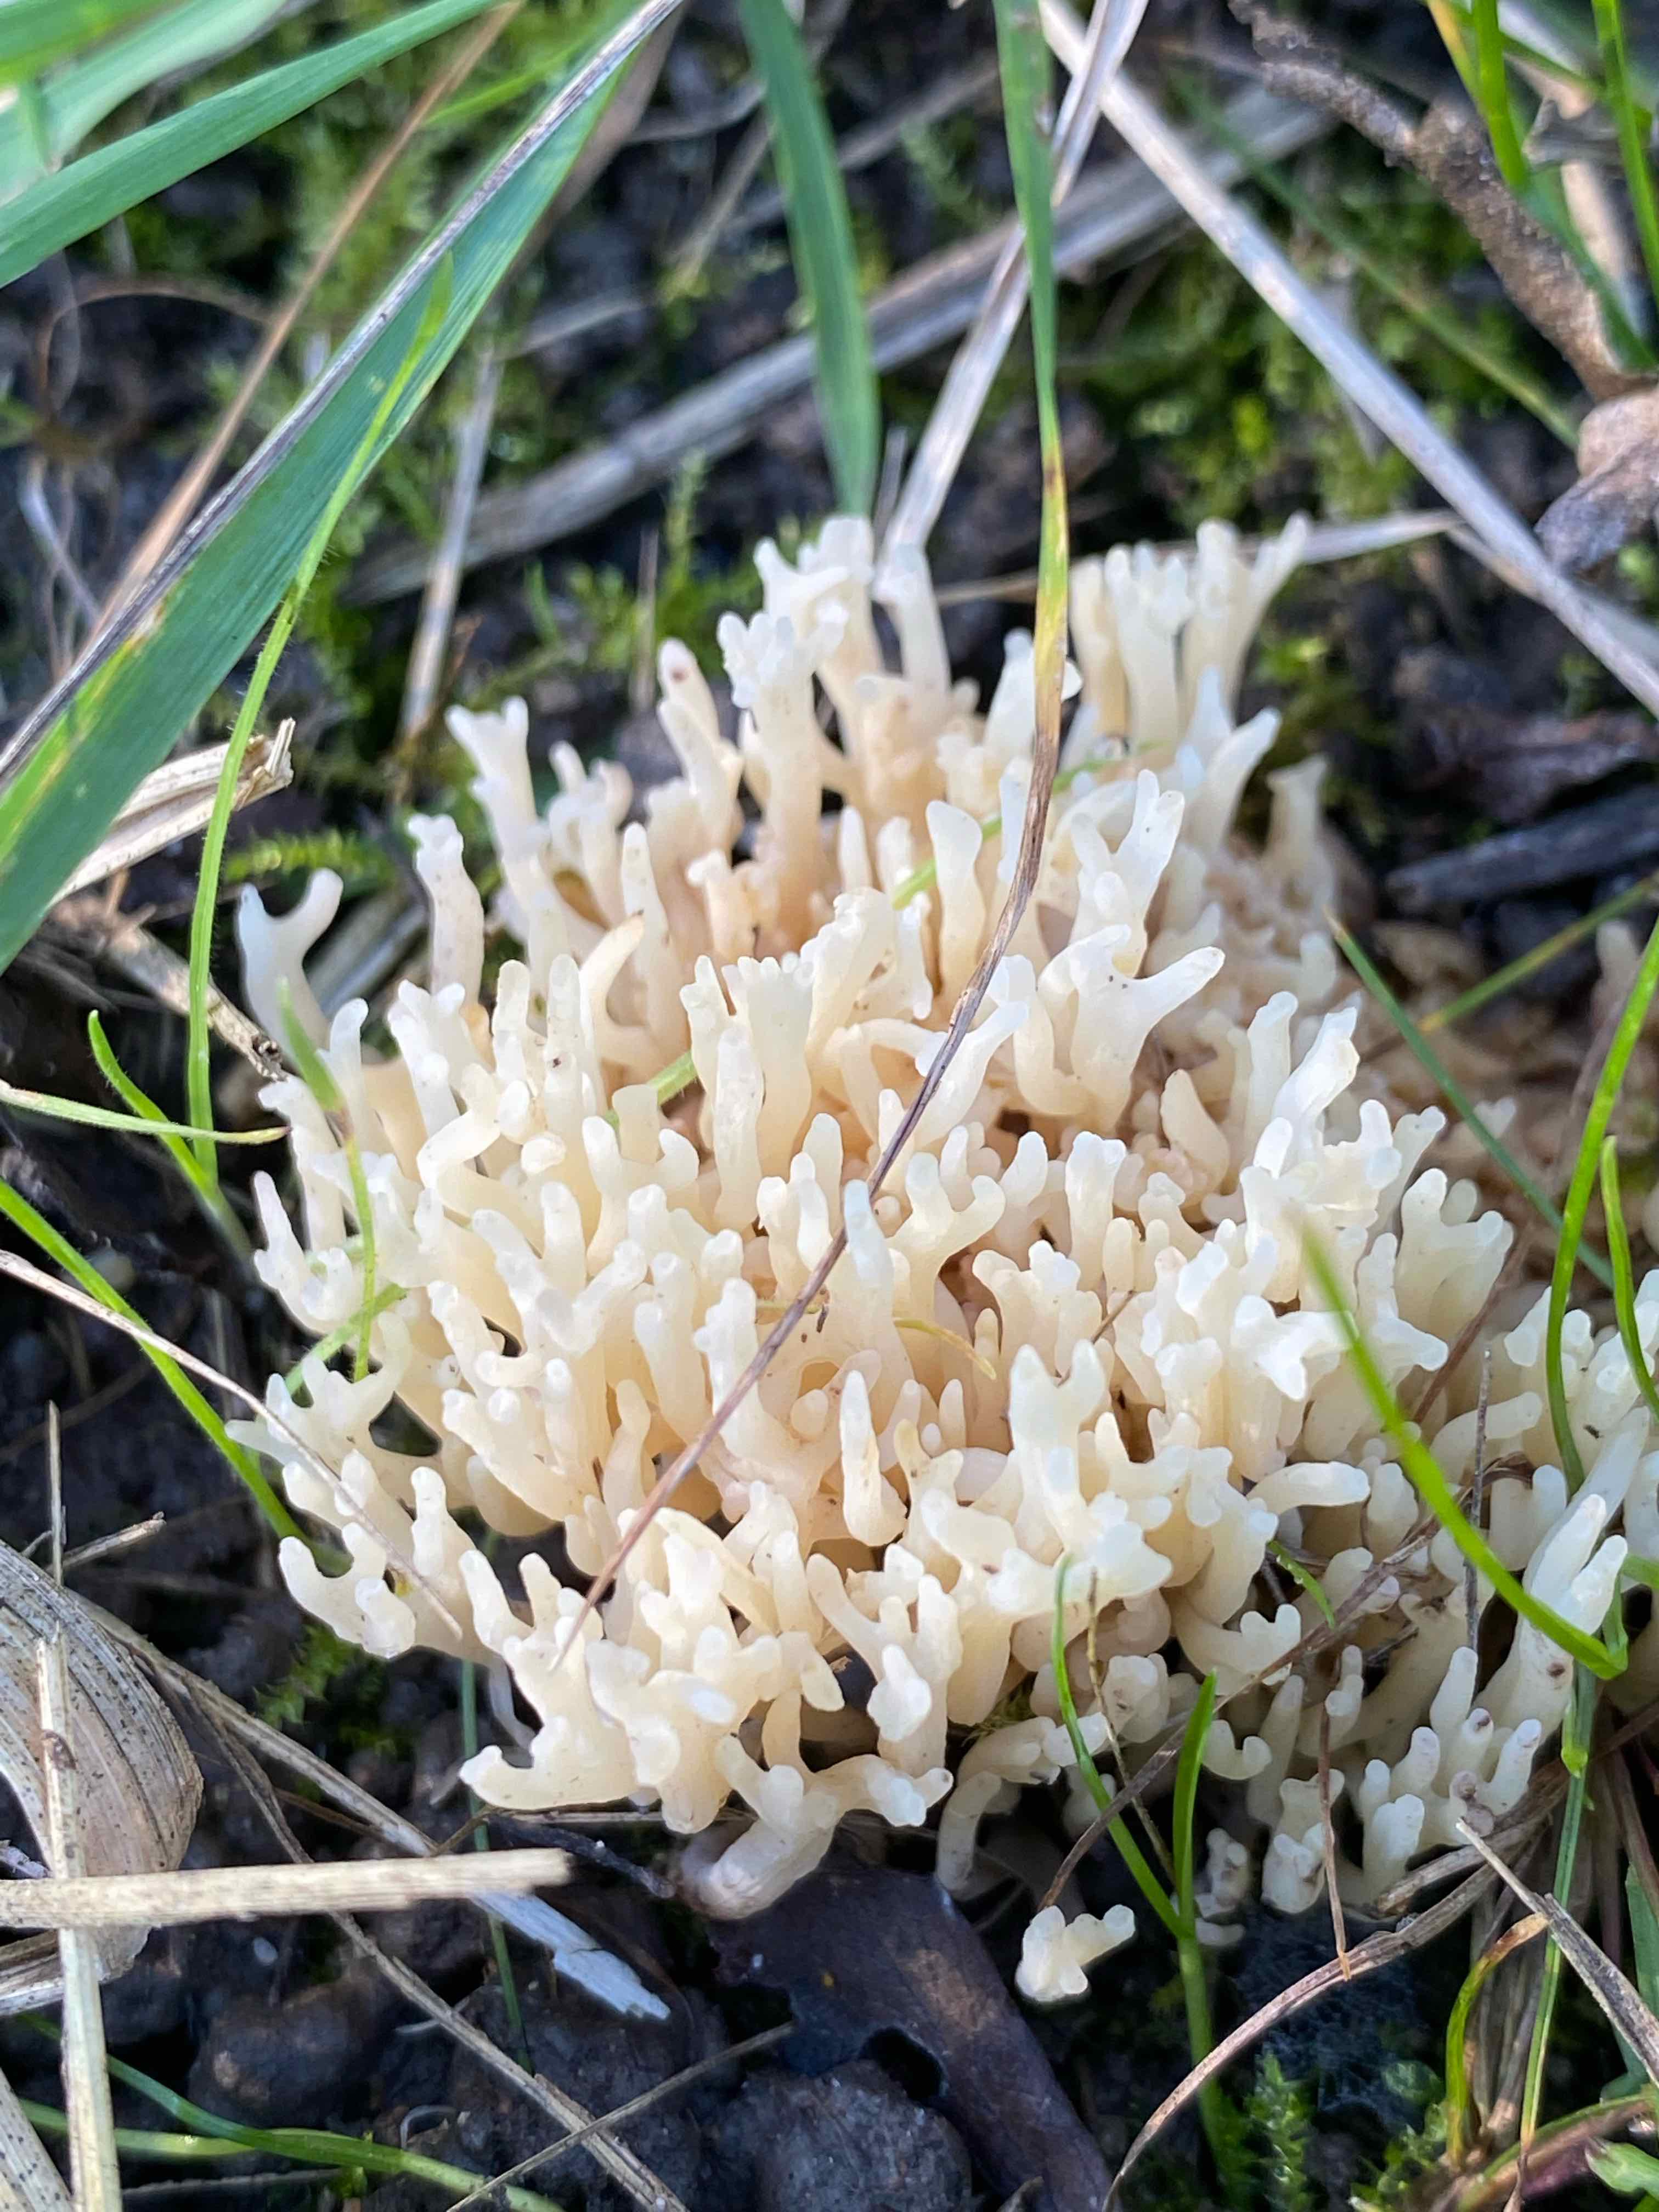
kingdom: Fungi
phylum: Basidiomycota
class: Agaricomycetes
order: Agaricales
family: Clavariaceae
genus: Ramariopsis
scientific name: Ramariopsis
